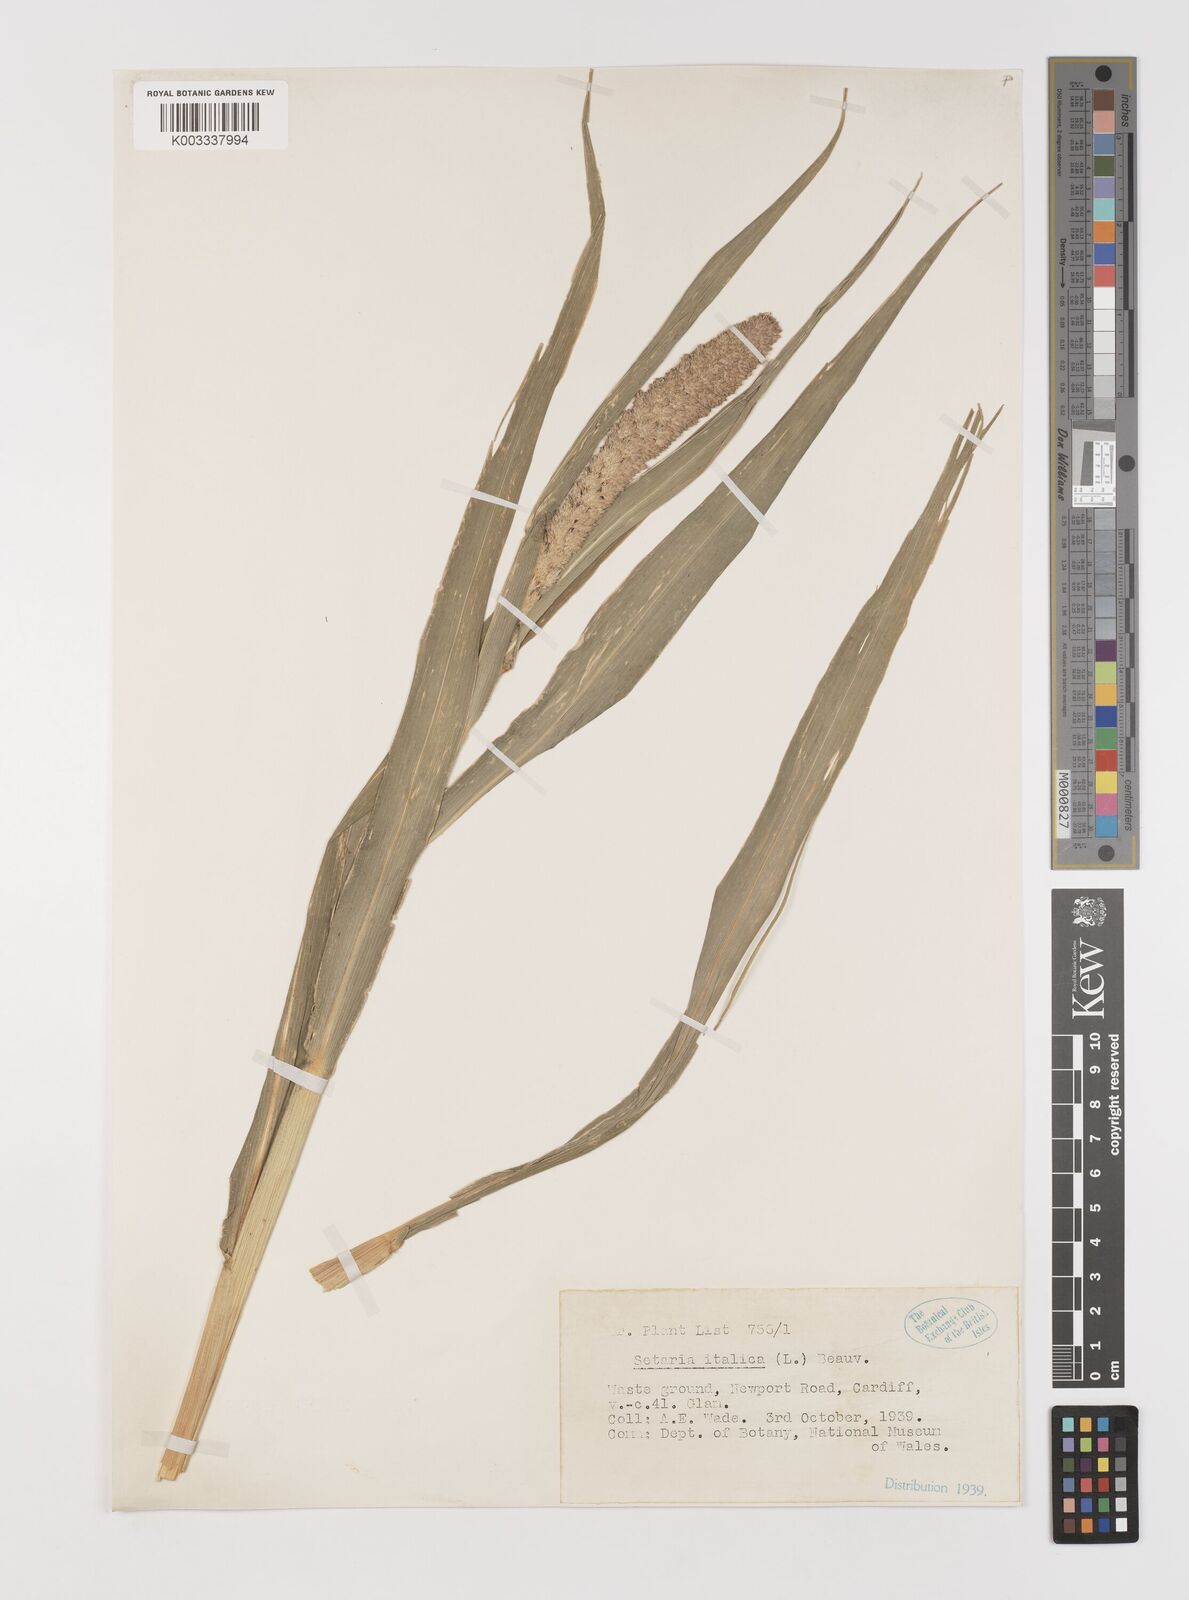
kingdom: Plantae
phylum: Tracheophyta
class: Liliopsida
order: Poales
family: Poaceae
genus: Setaria
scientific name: Setaria italica
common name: Foxtail bristle-grass
